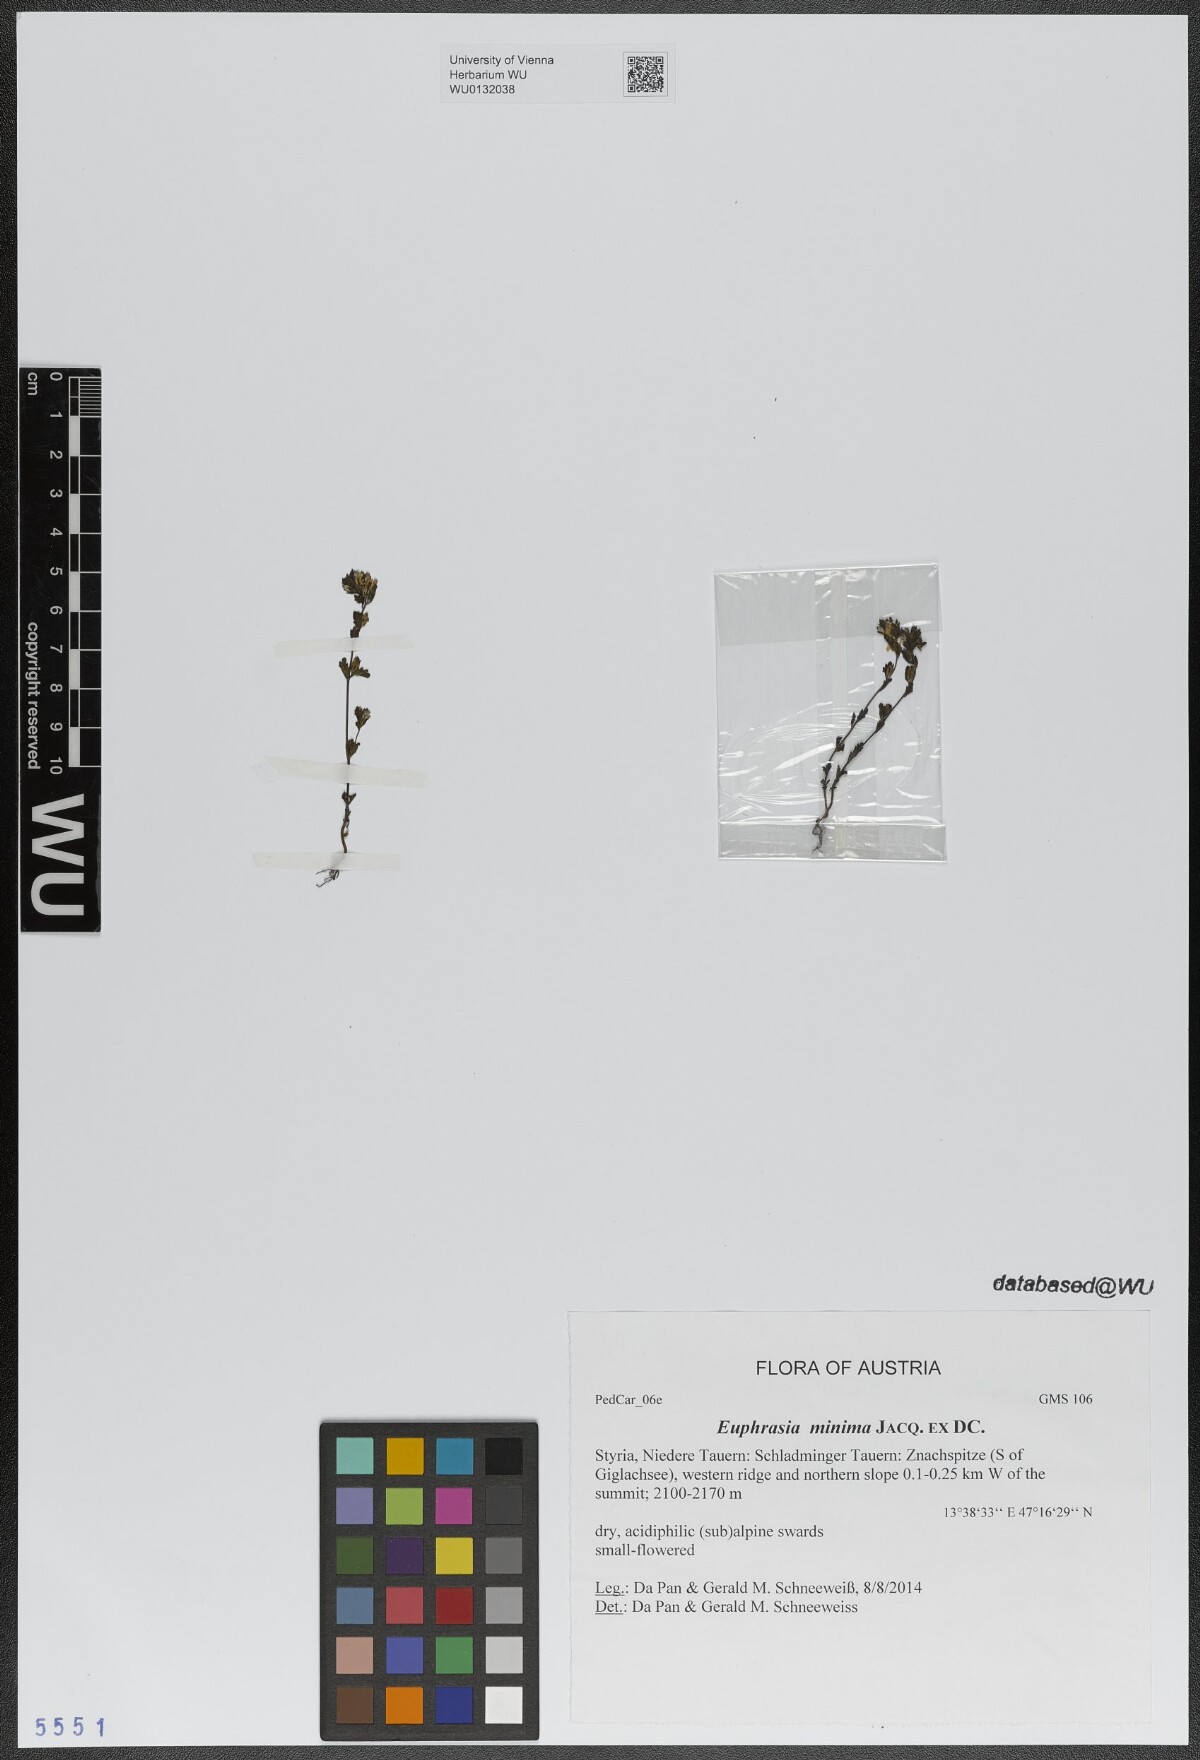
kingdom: Plantae
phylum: Tracheophyta
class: Magnoliopsida
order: Lamiales
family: Orobanchaceae
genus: Euphrasia
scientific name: Euphrasia minima
